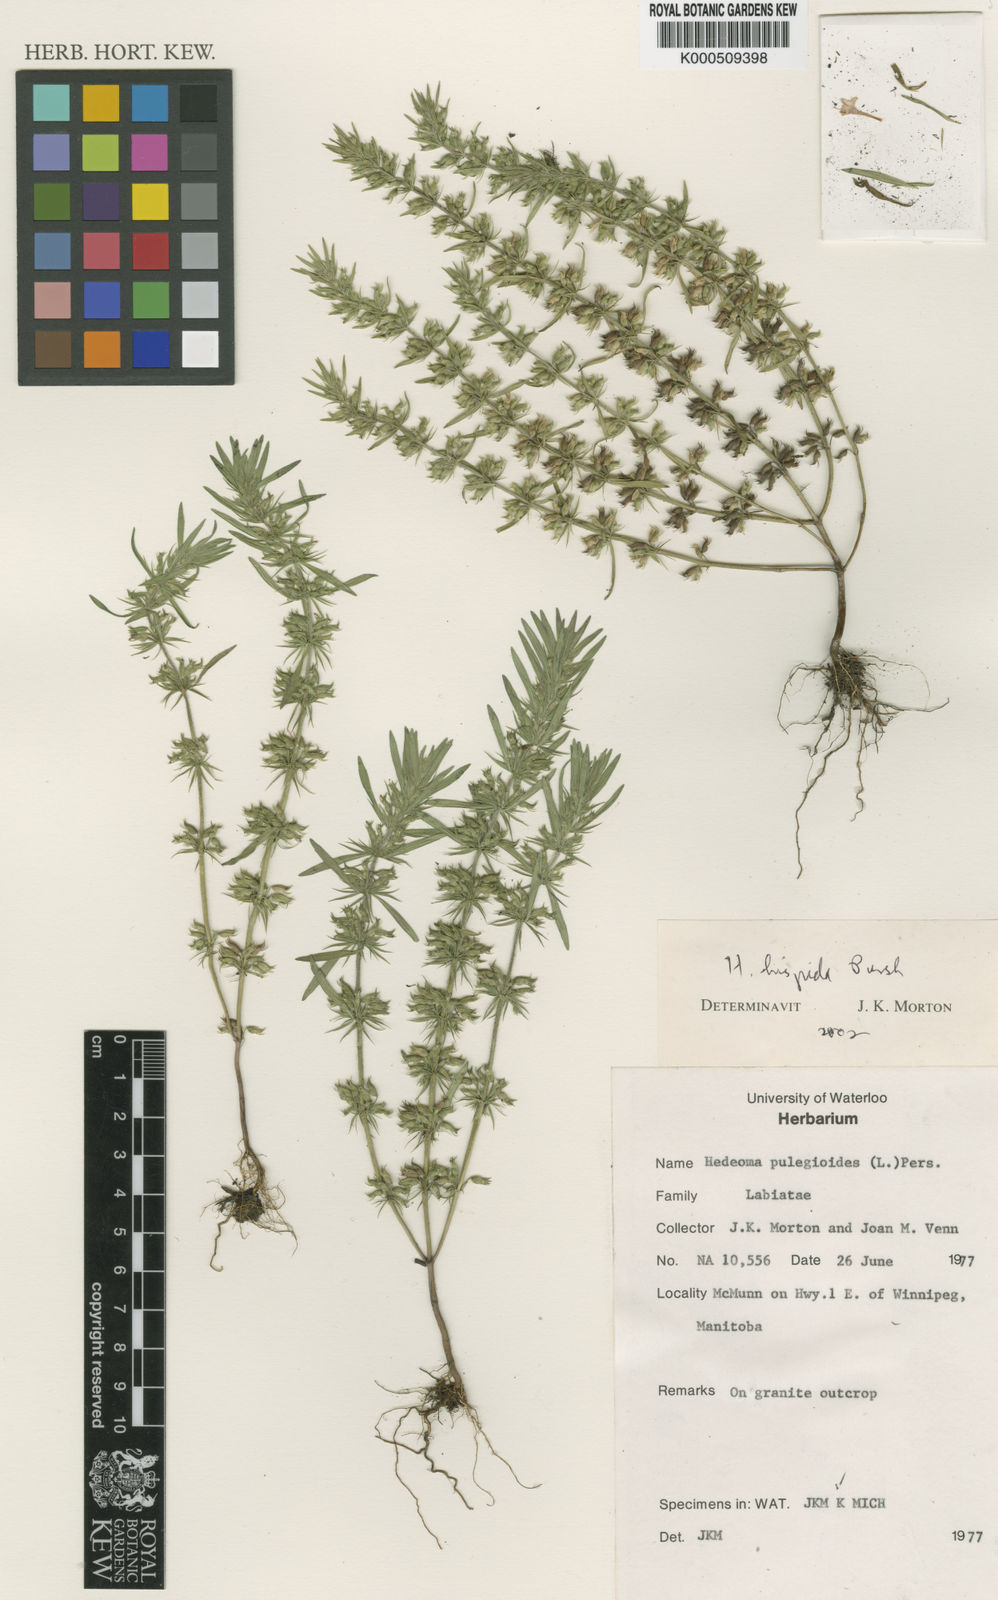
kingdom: Plantae
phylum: Tracheophyta
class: Magnoliopsida
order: Lamiales
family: Lamiaceae
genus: Hedeoma
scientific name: Hedeoma hispida
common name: Mock pennyroyal
